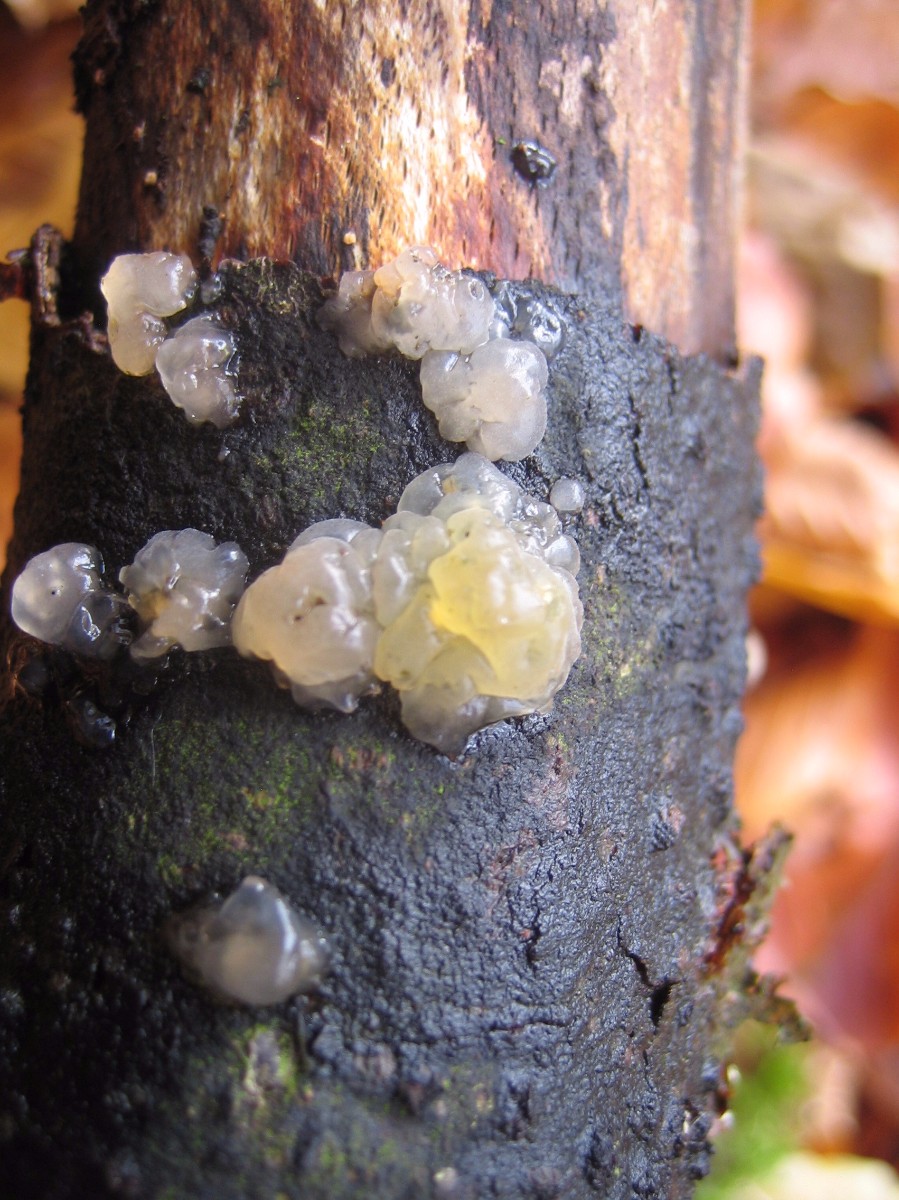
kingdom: Fungi
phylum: Basidiomycota
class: Agaricomycetes
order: Auriculariales
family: Hyaloriaceae
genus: Myxarium
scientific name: Myxarium nucleatum
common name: klar bævretop
